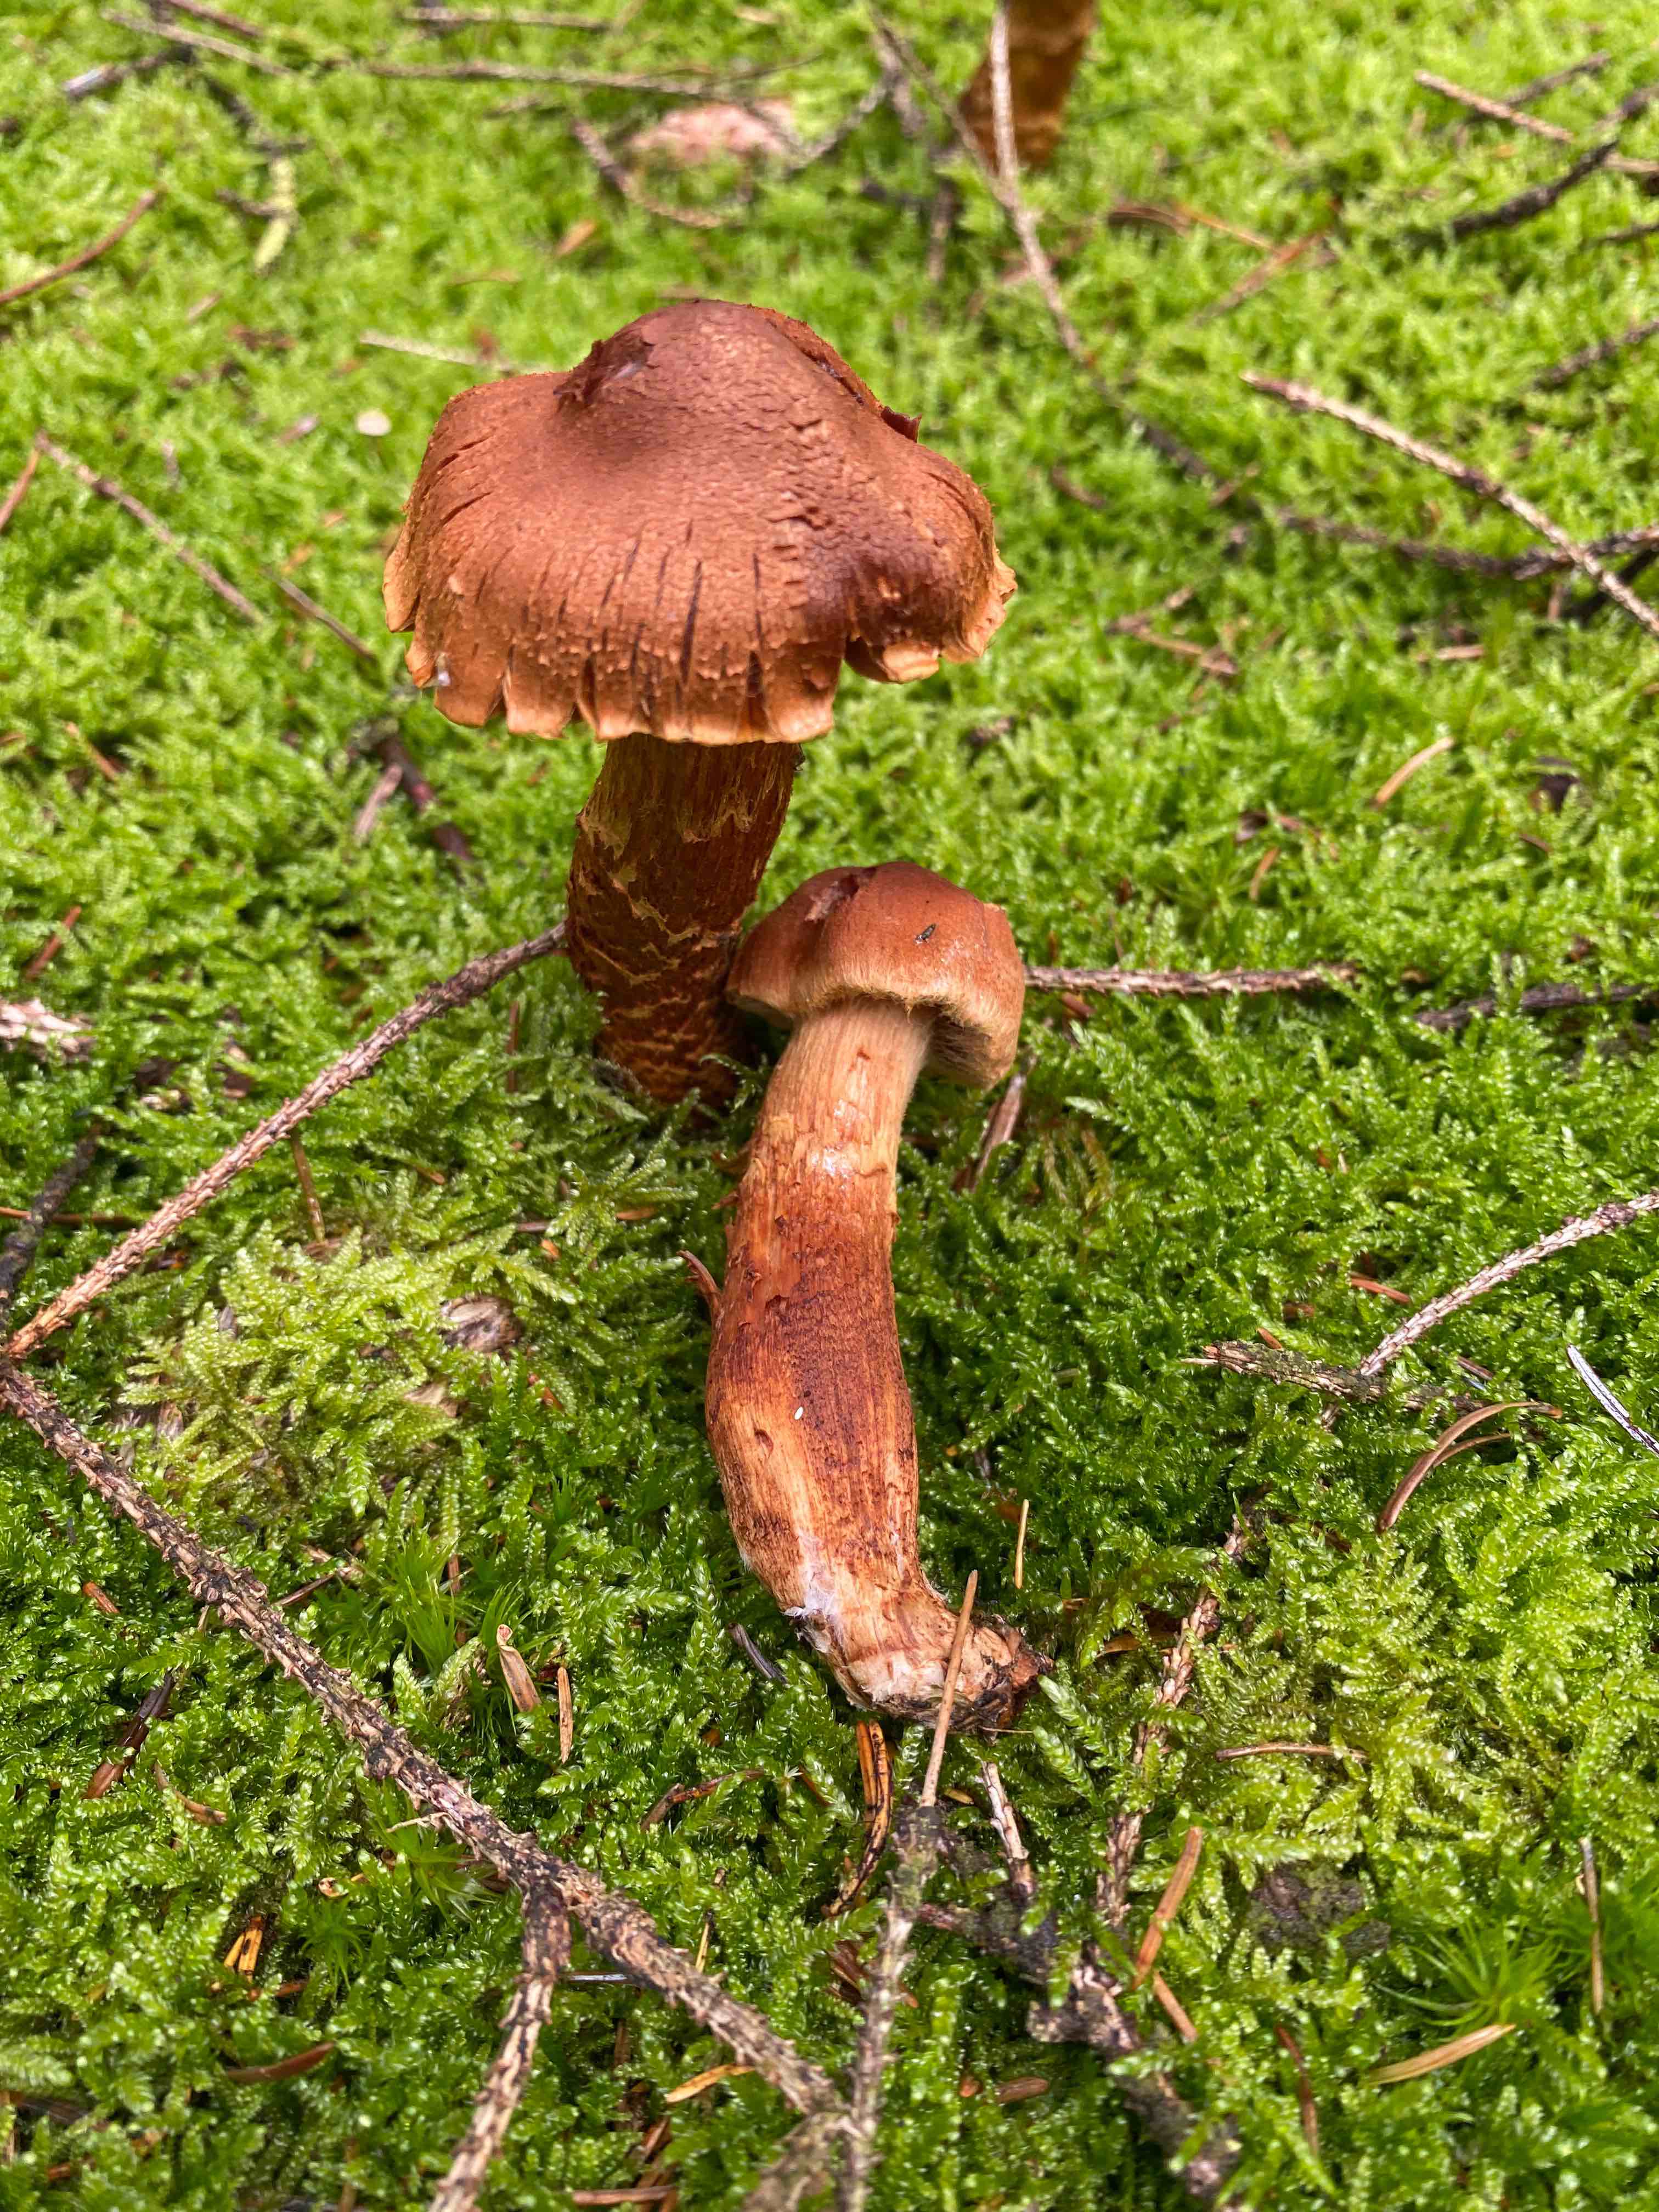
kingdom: Fungi
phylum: Basidiomycota
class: Agaricomycetes
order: Agaricales
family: Cortinariaceae
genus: Cortinarius
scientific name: Cortinarius rubellus
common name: puklet gift-slørhat
